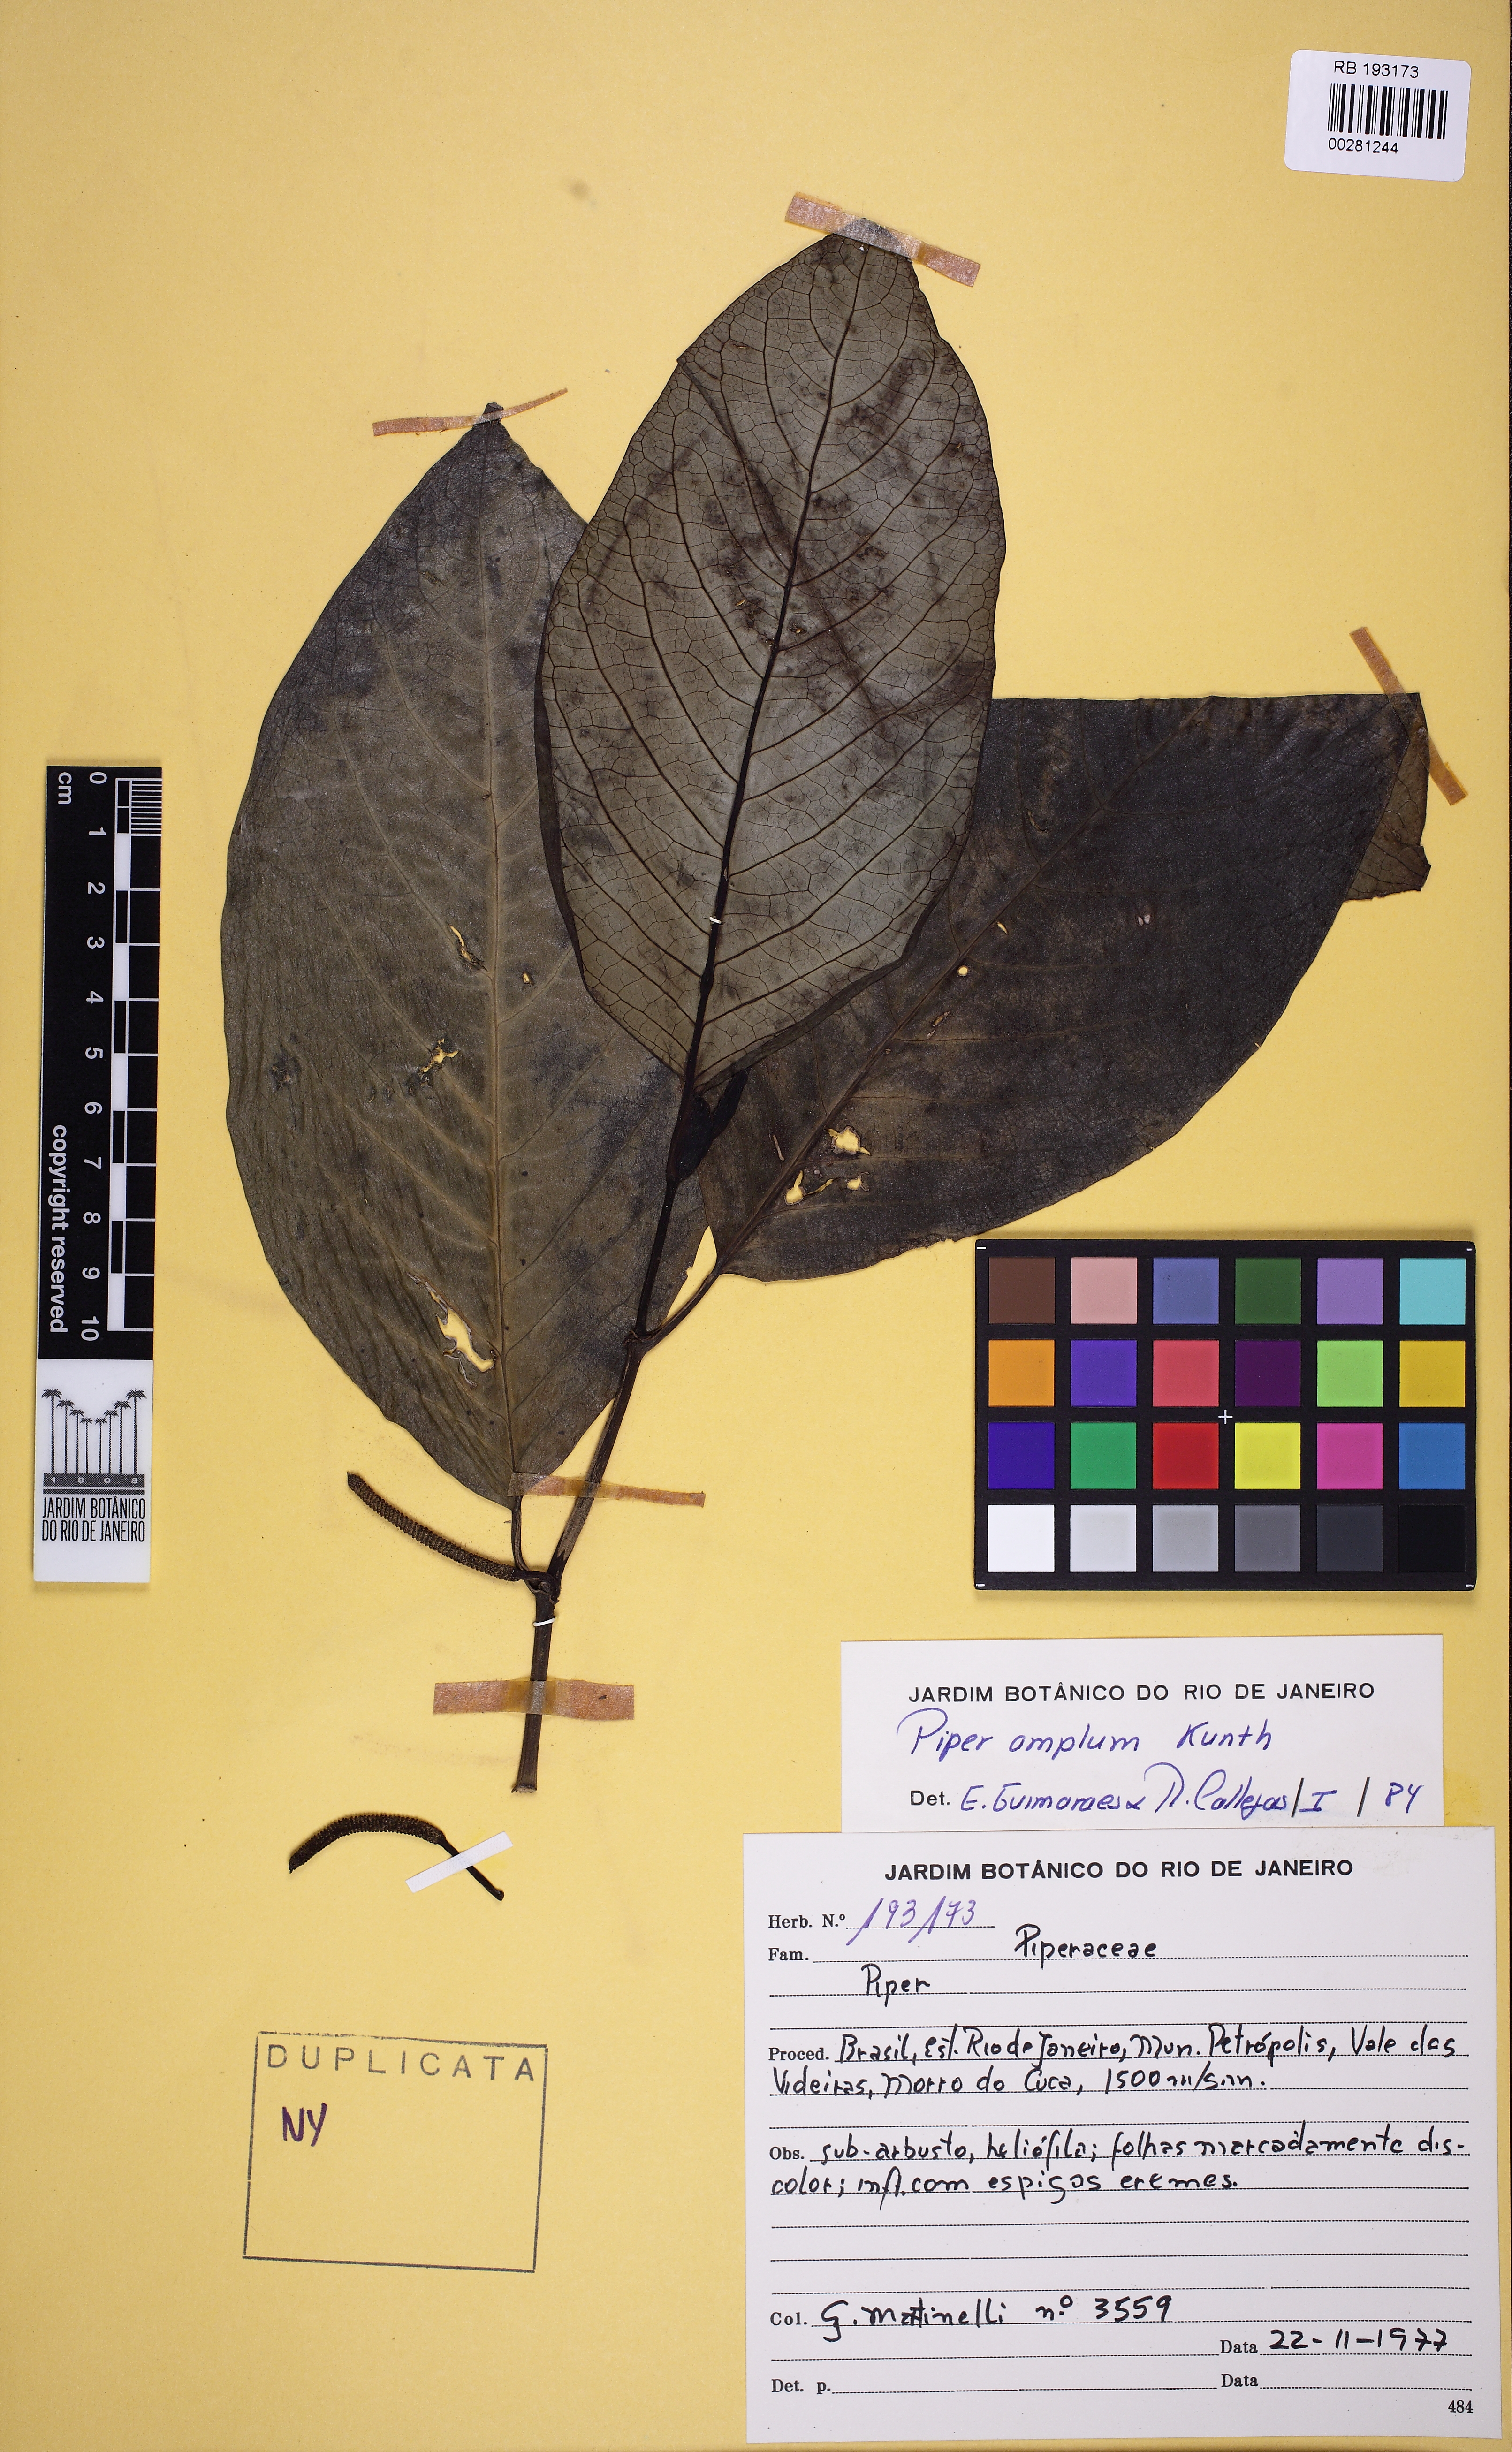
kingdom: Plantae
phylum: Tracheophyta
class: Magnoliopsida
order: Piperales
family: Piperaceae
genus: Piper
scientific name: Piper fluminense
